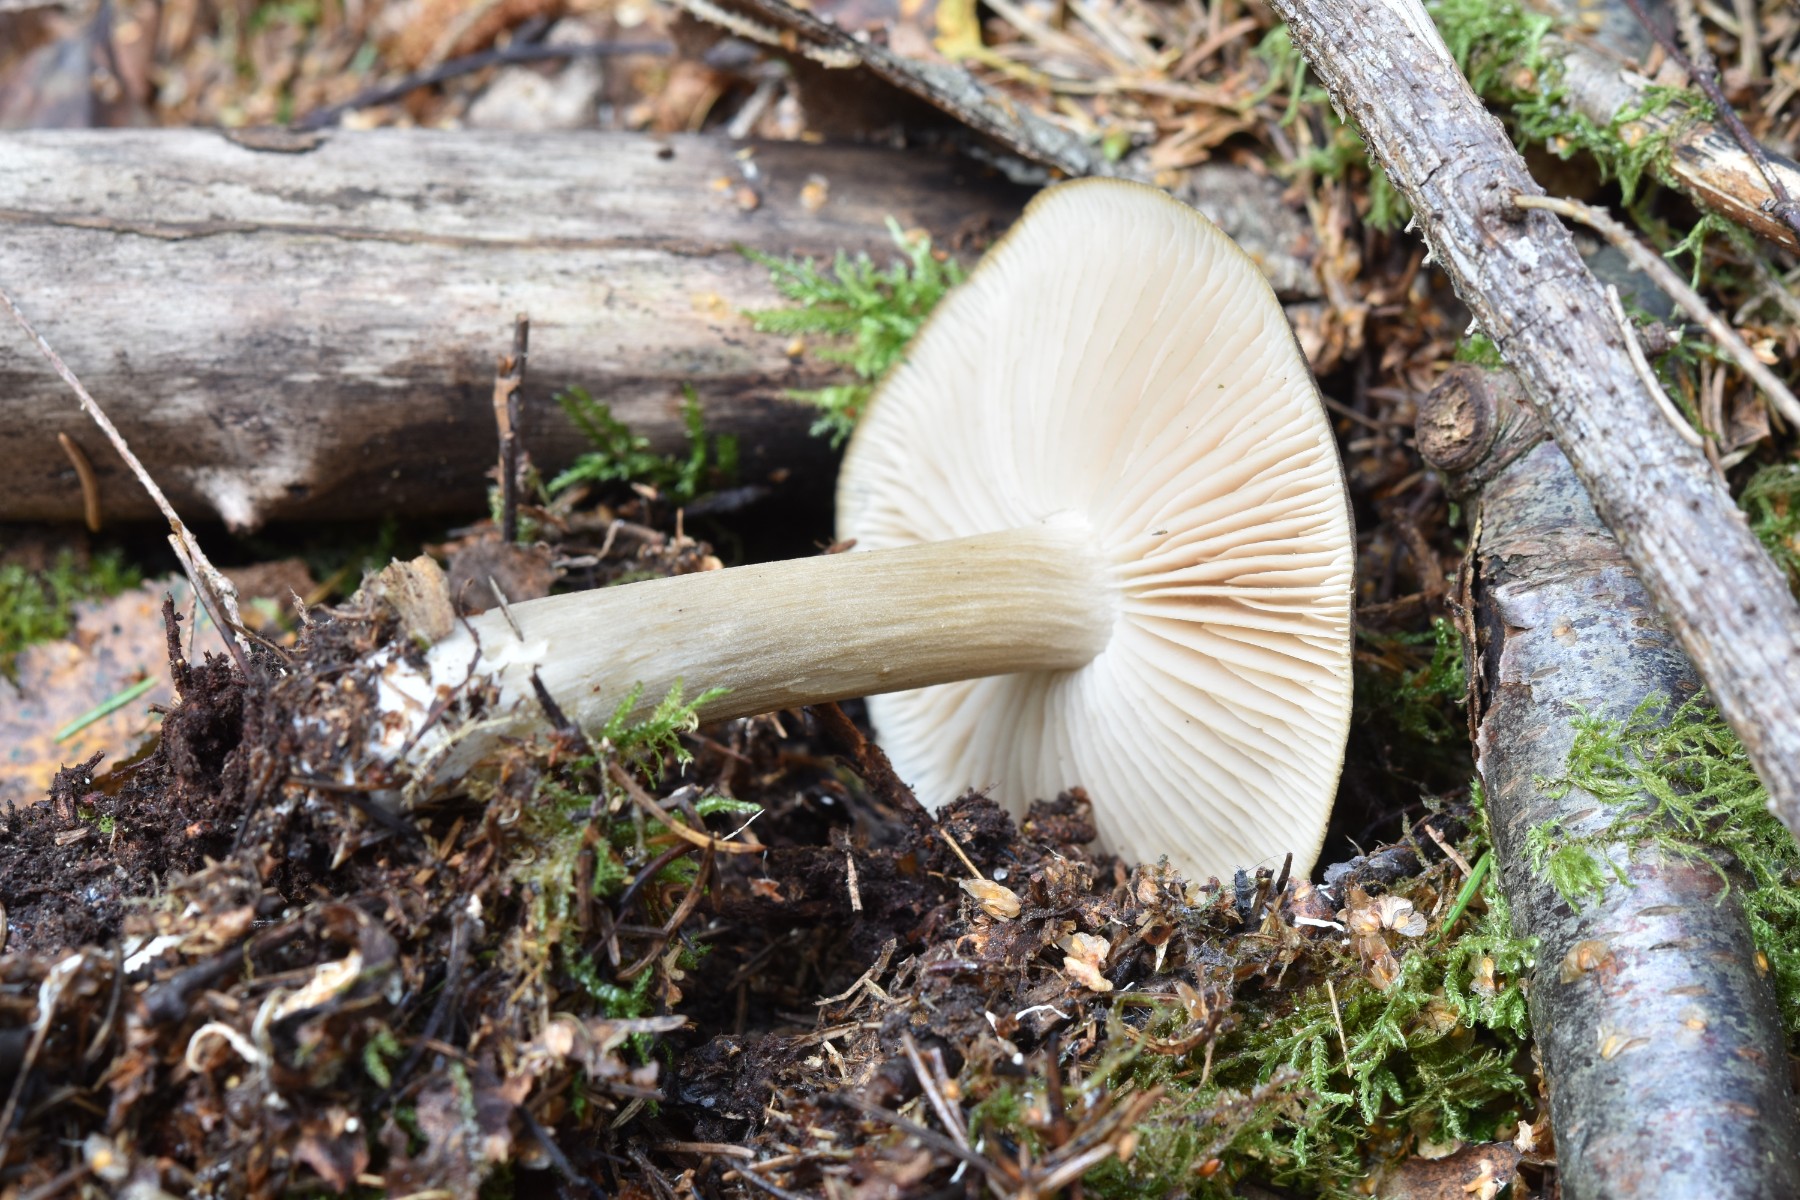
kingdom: Fungi
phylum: Basidiomycota
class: Agaricomycetes
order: Agaricales
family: Tricholomataceae
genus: Megacollybia
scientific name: Megacollybia platyphylla
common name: bredbladet væbnerhat
